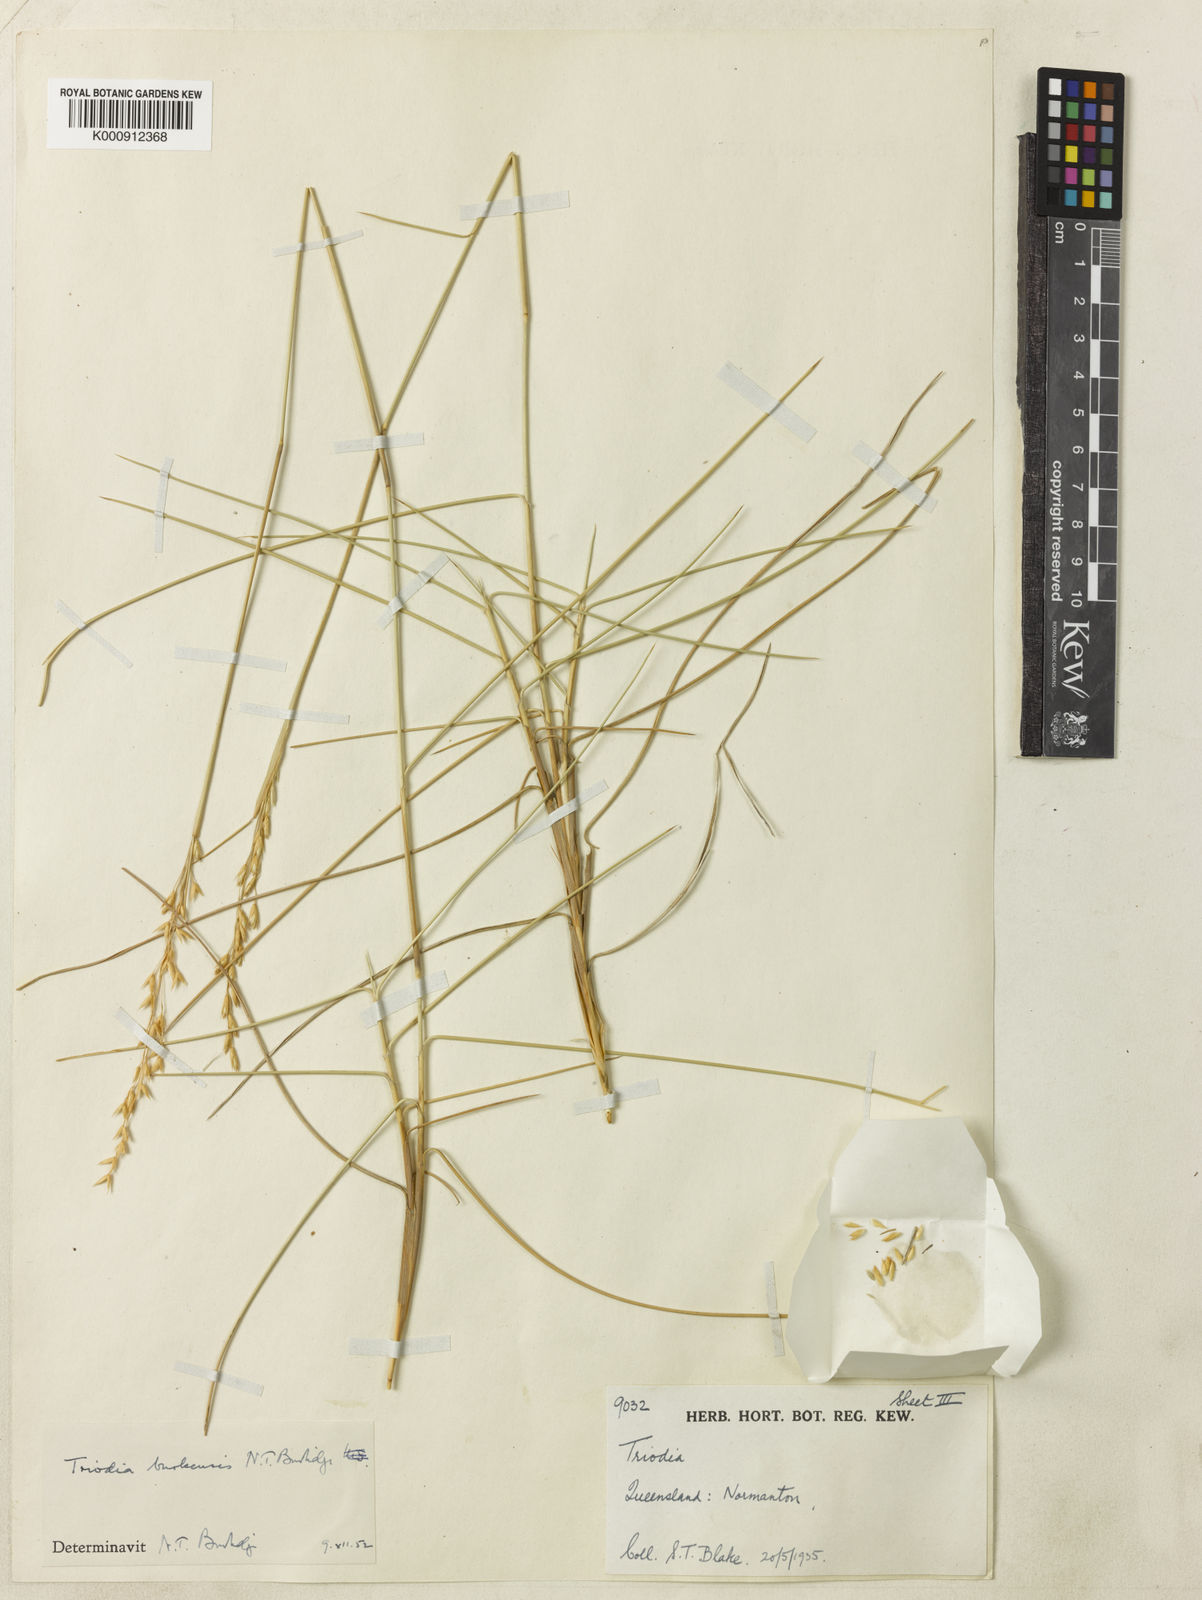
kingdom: Plantae
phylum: Tracheophyta
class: Liliopsida
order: Poales
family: Poaceae
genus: Triodia
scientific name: Triodia brizoides
